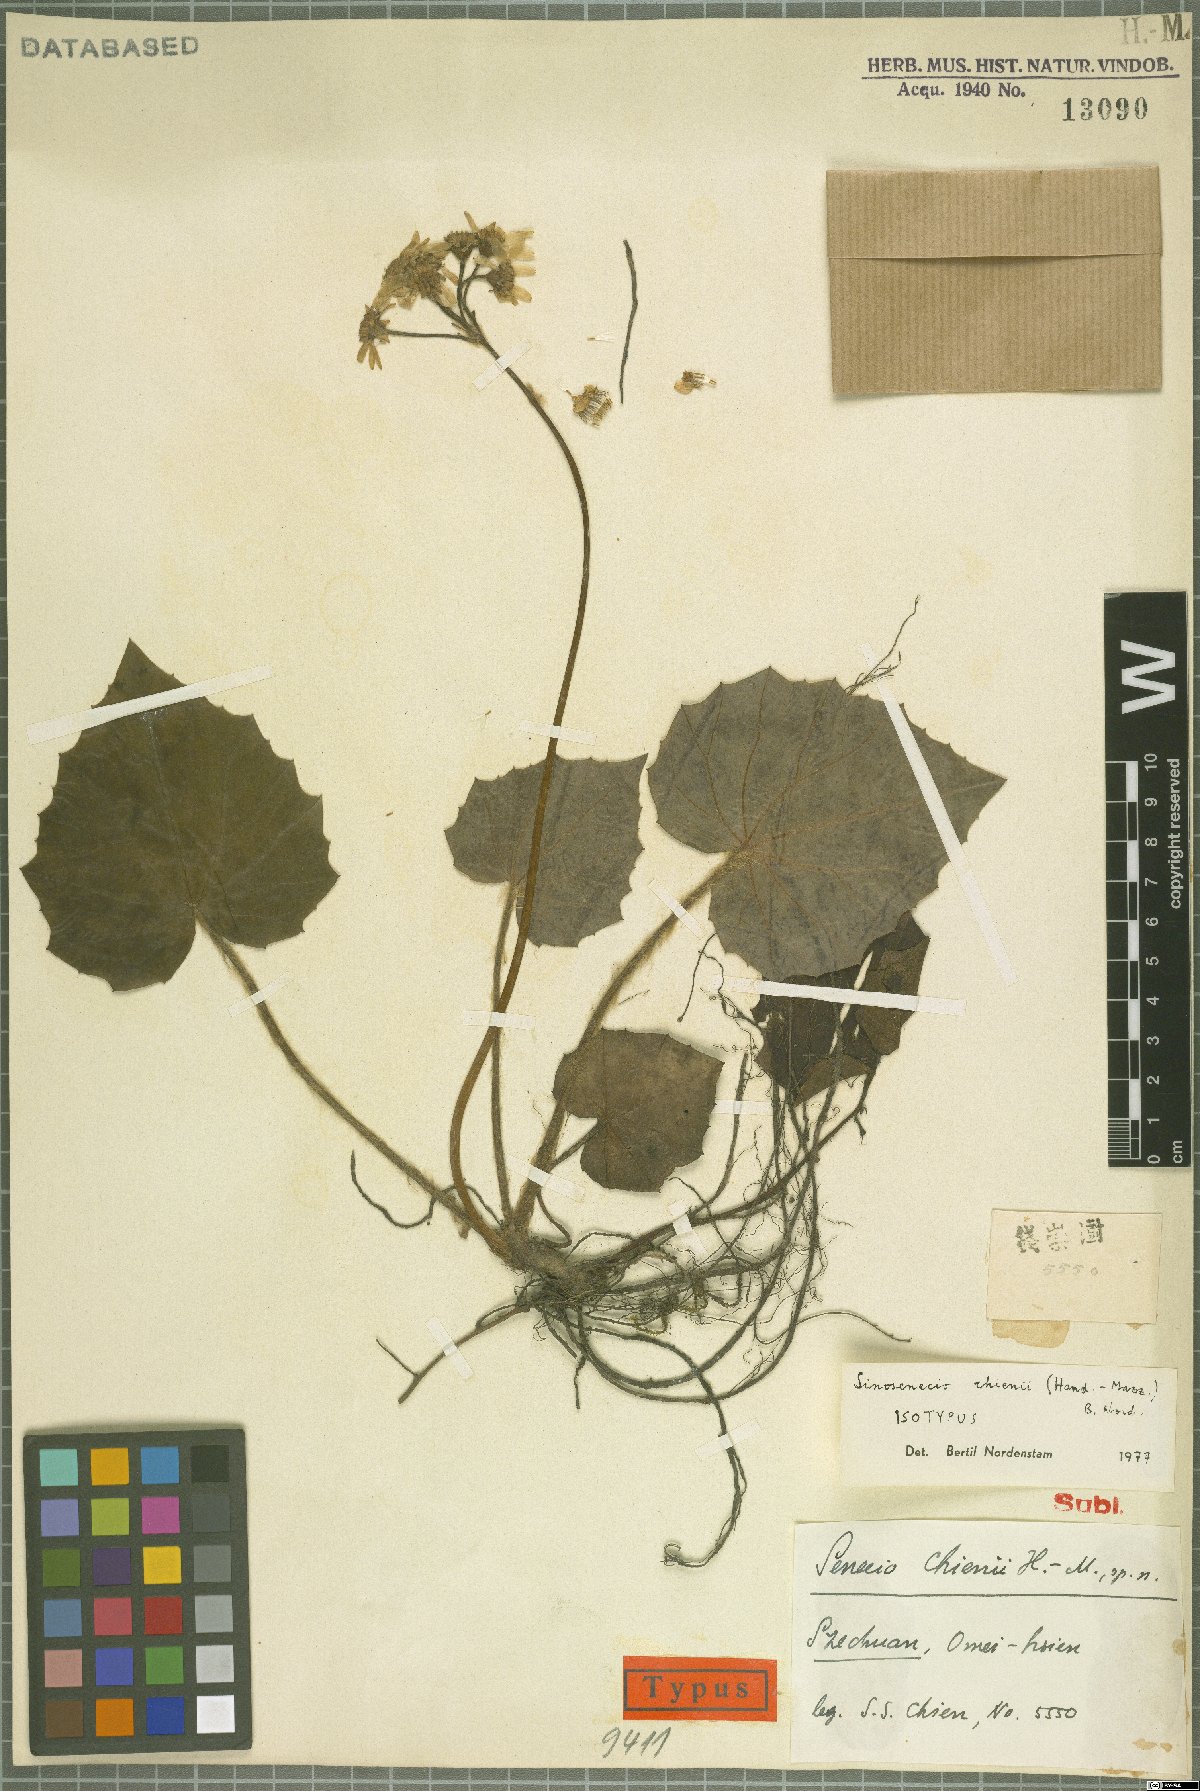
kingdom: Plantae
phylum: Tracheophyta
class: Magnoliopsida
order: Asterales
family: Asteraceae
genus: Sinosenecio
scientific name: Sinosenecio chienii
